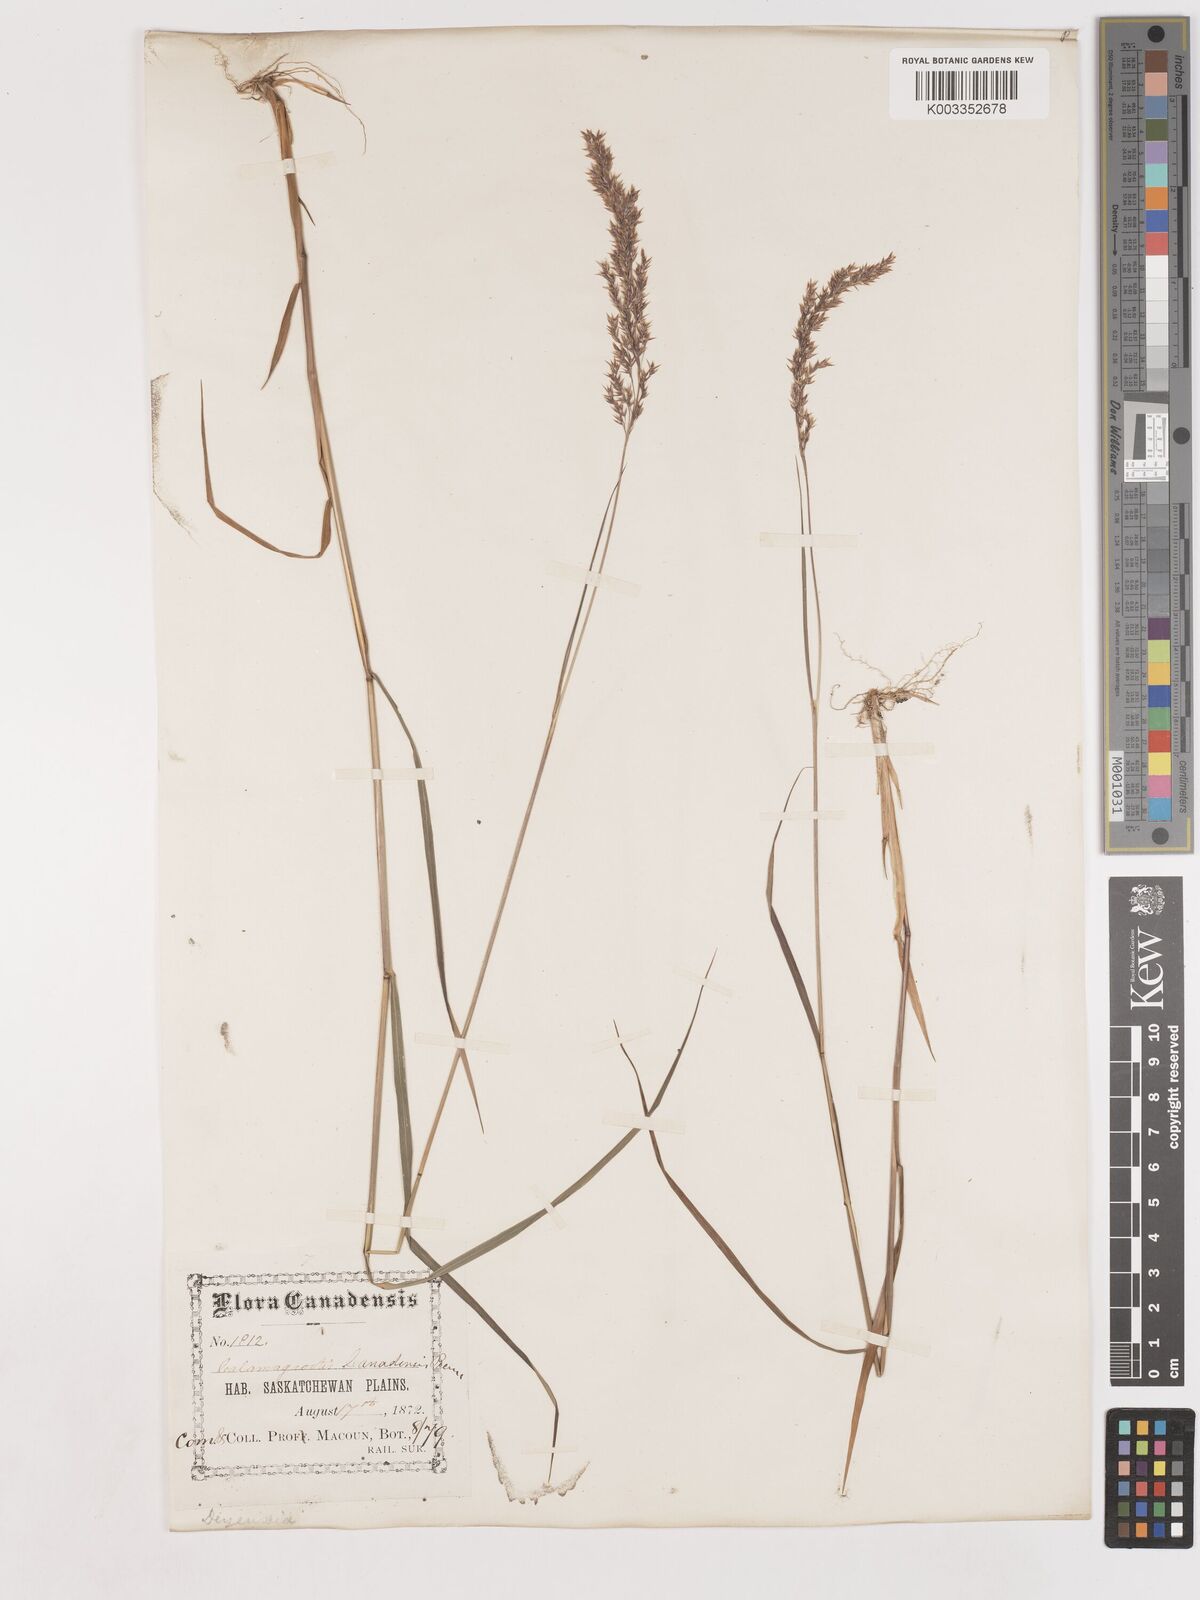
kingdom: Plantae
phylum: Tracheophyta
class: Liliopsida
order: Poales
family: Poaceae
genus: Calamagrostis
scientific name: Calamagrostis canadensis
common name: Canada bluejoint
